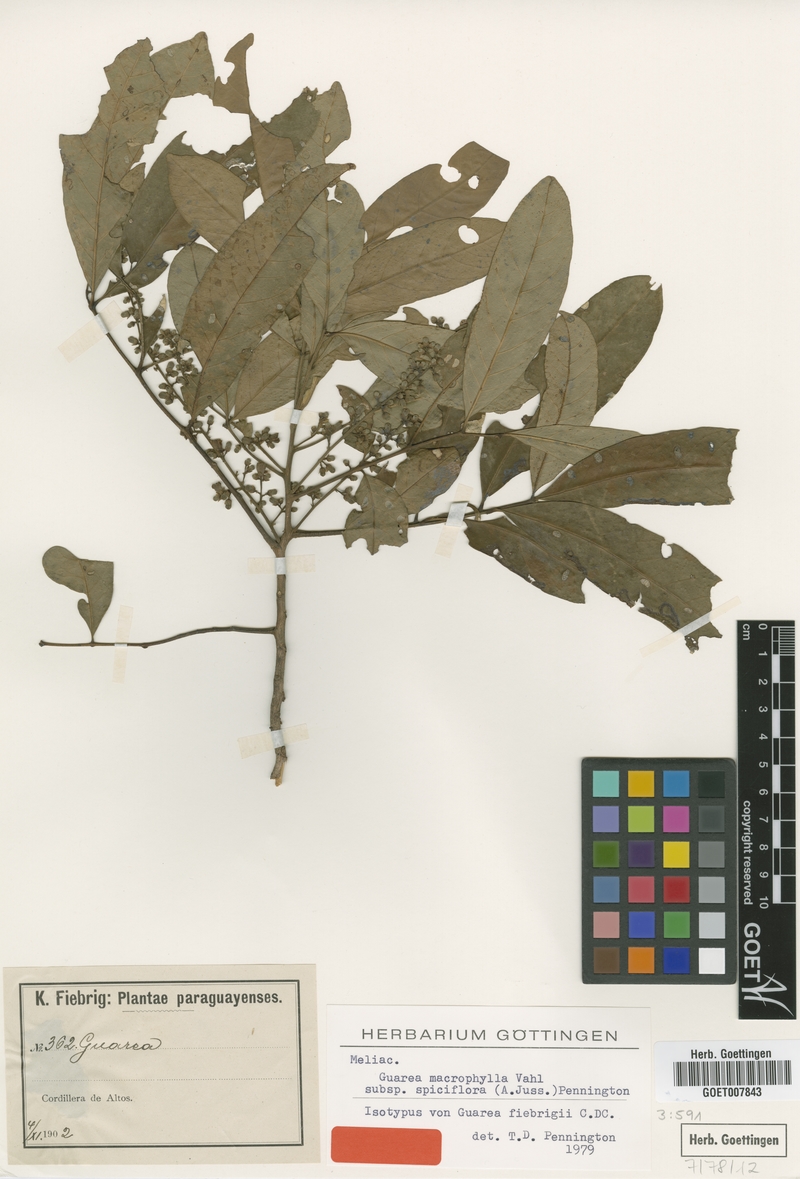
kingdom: Plantae
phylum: Tracheophyta
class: Magnoliopsida
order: Sapindales
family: Meliaceae
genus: Guarea
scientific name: Guarea macrophylla
